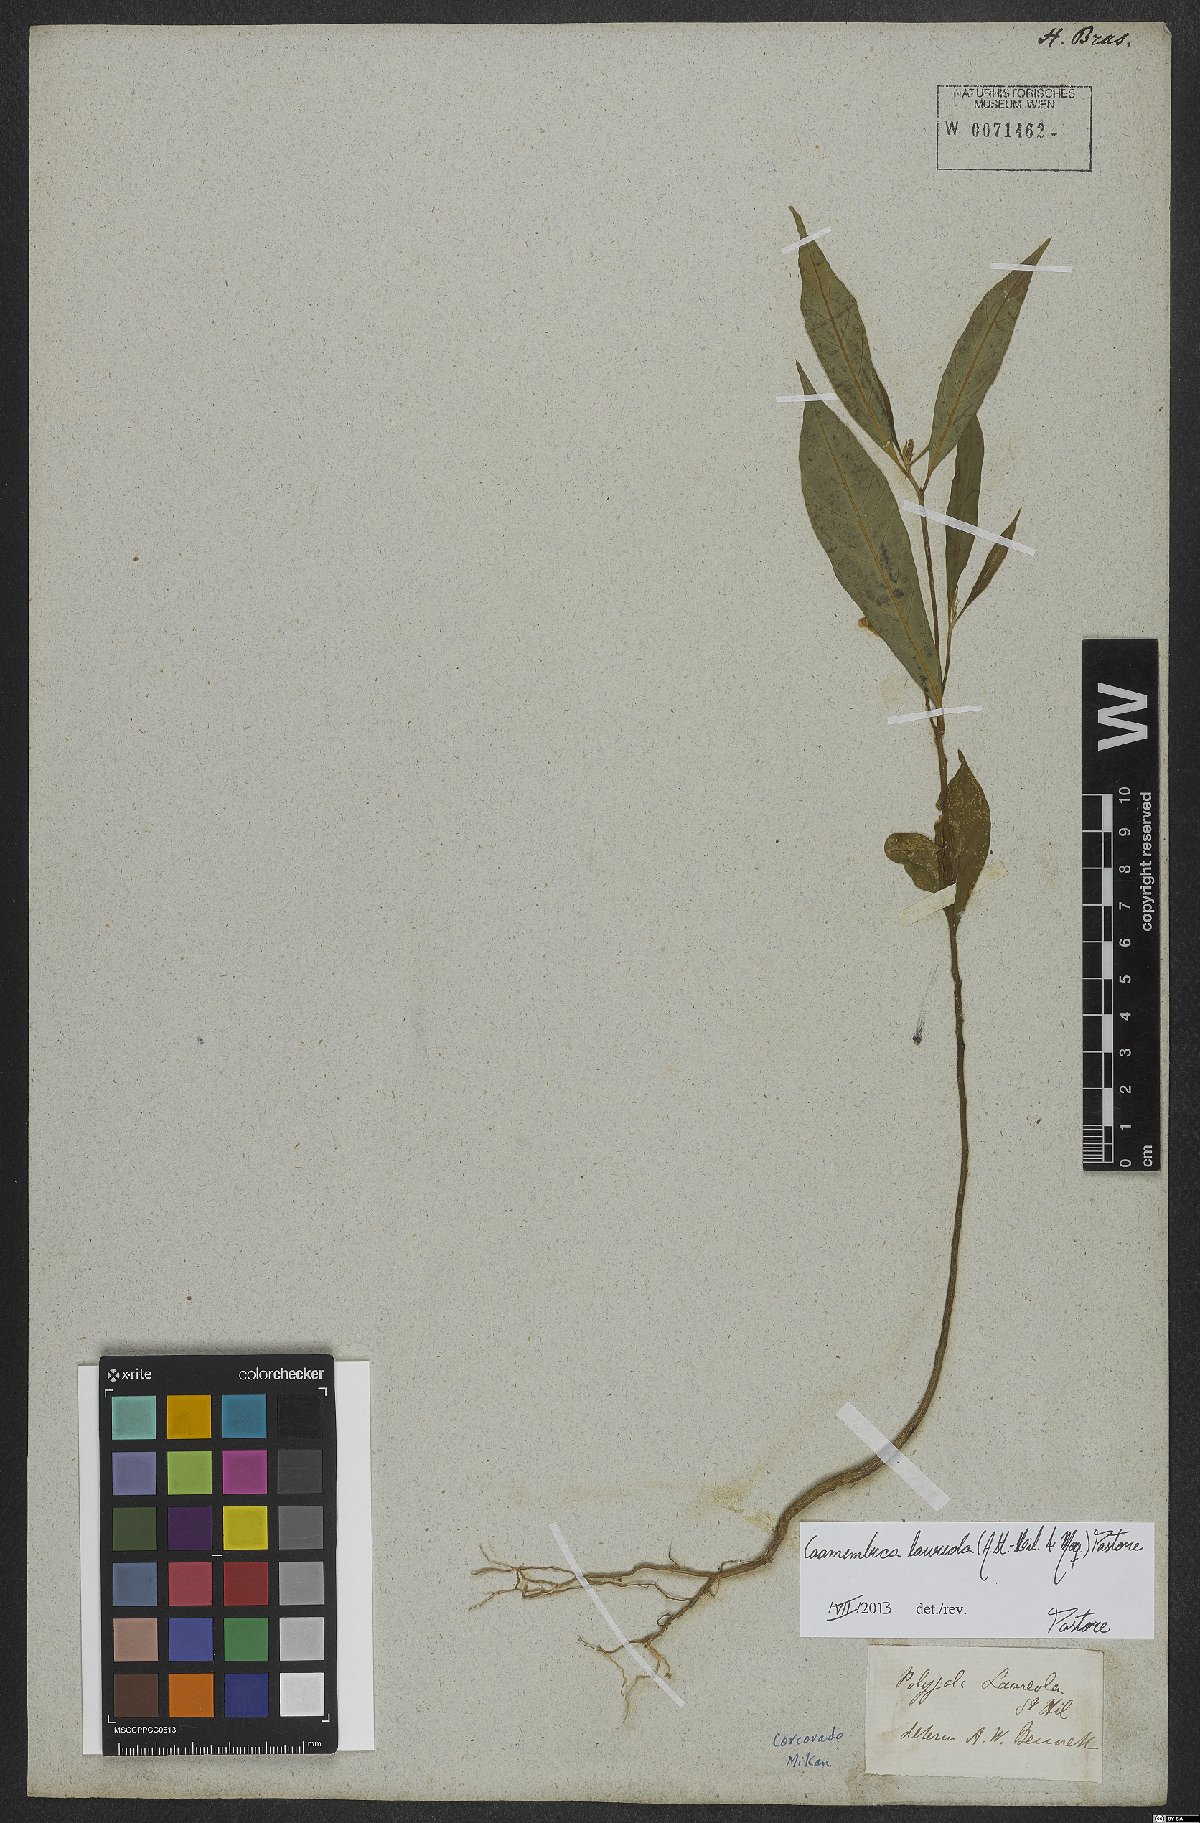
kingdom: Plantae
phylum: Tracheophyta
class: Magnoliopsida
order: Fabales
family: Polygalaceae
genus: Caamembeca
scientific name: Caamembeca salicifolia
